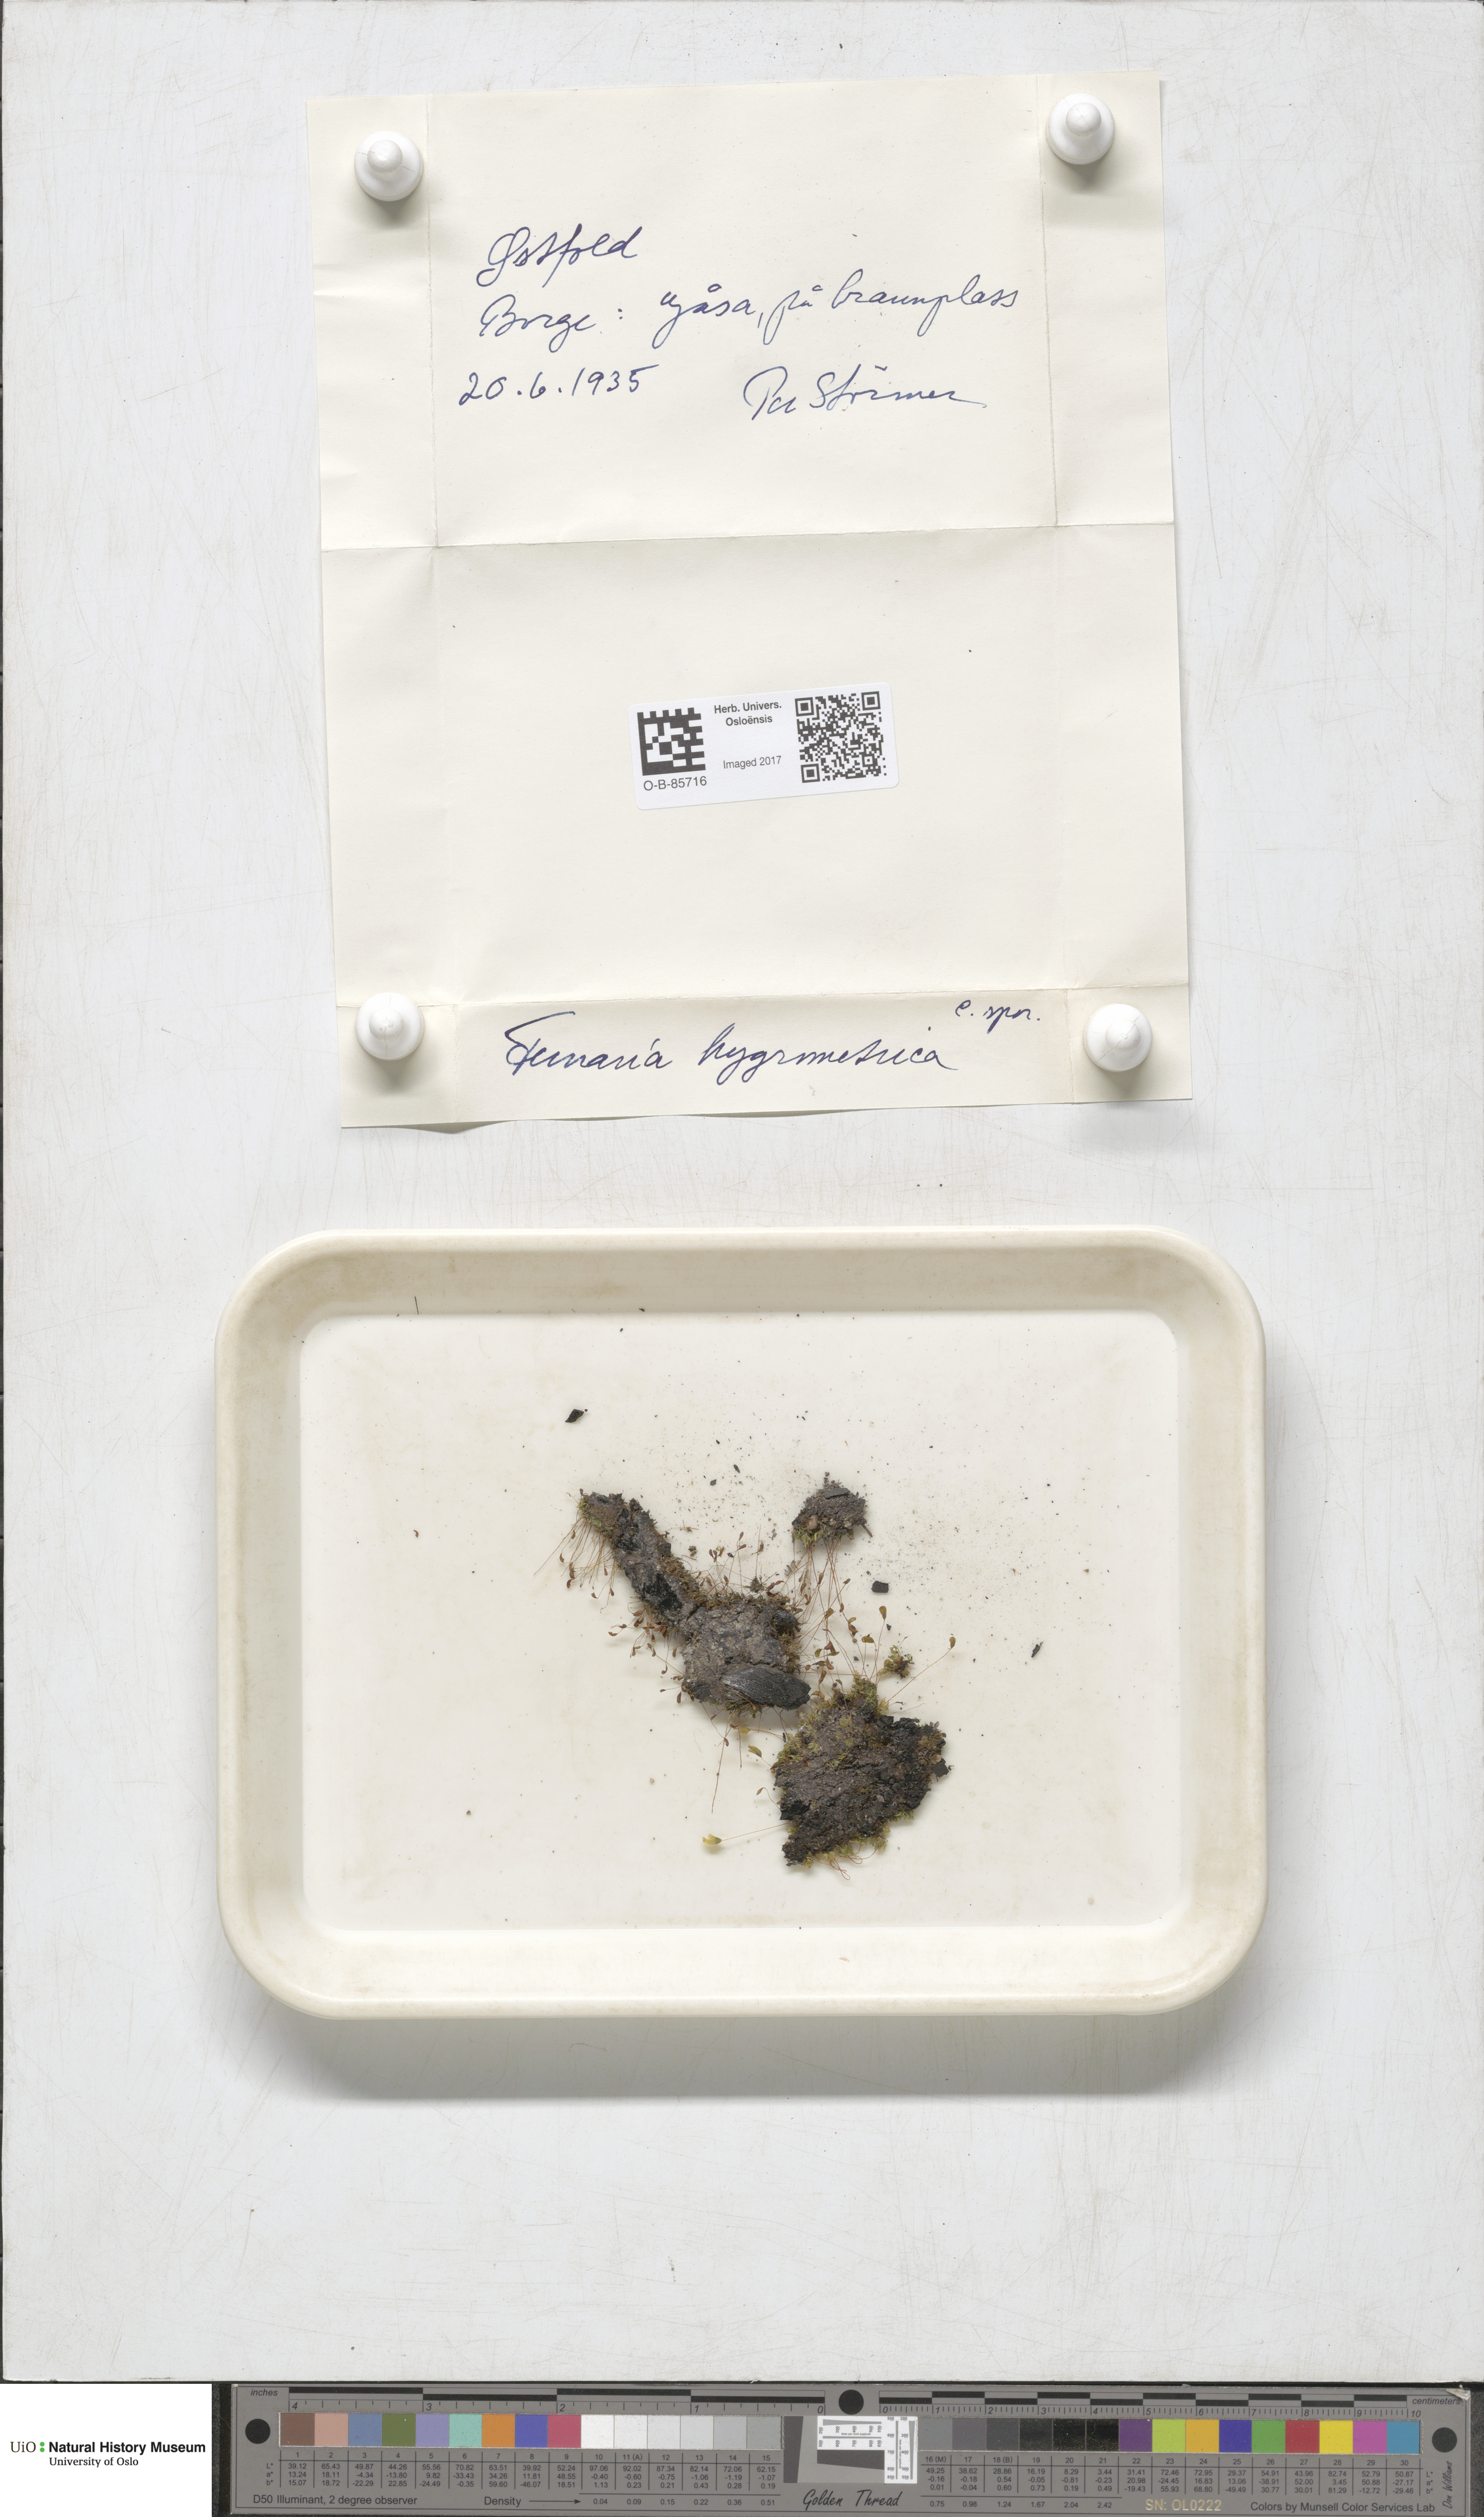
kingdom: Plantae
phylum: Bryophyta
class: Bryopsida
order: Funariales
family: Funariaceae
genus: Funaria
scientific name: Funaria hygrometrica
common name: Common cord moss
